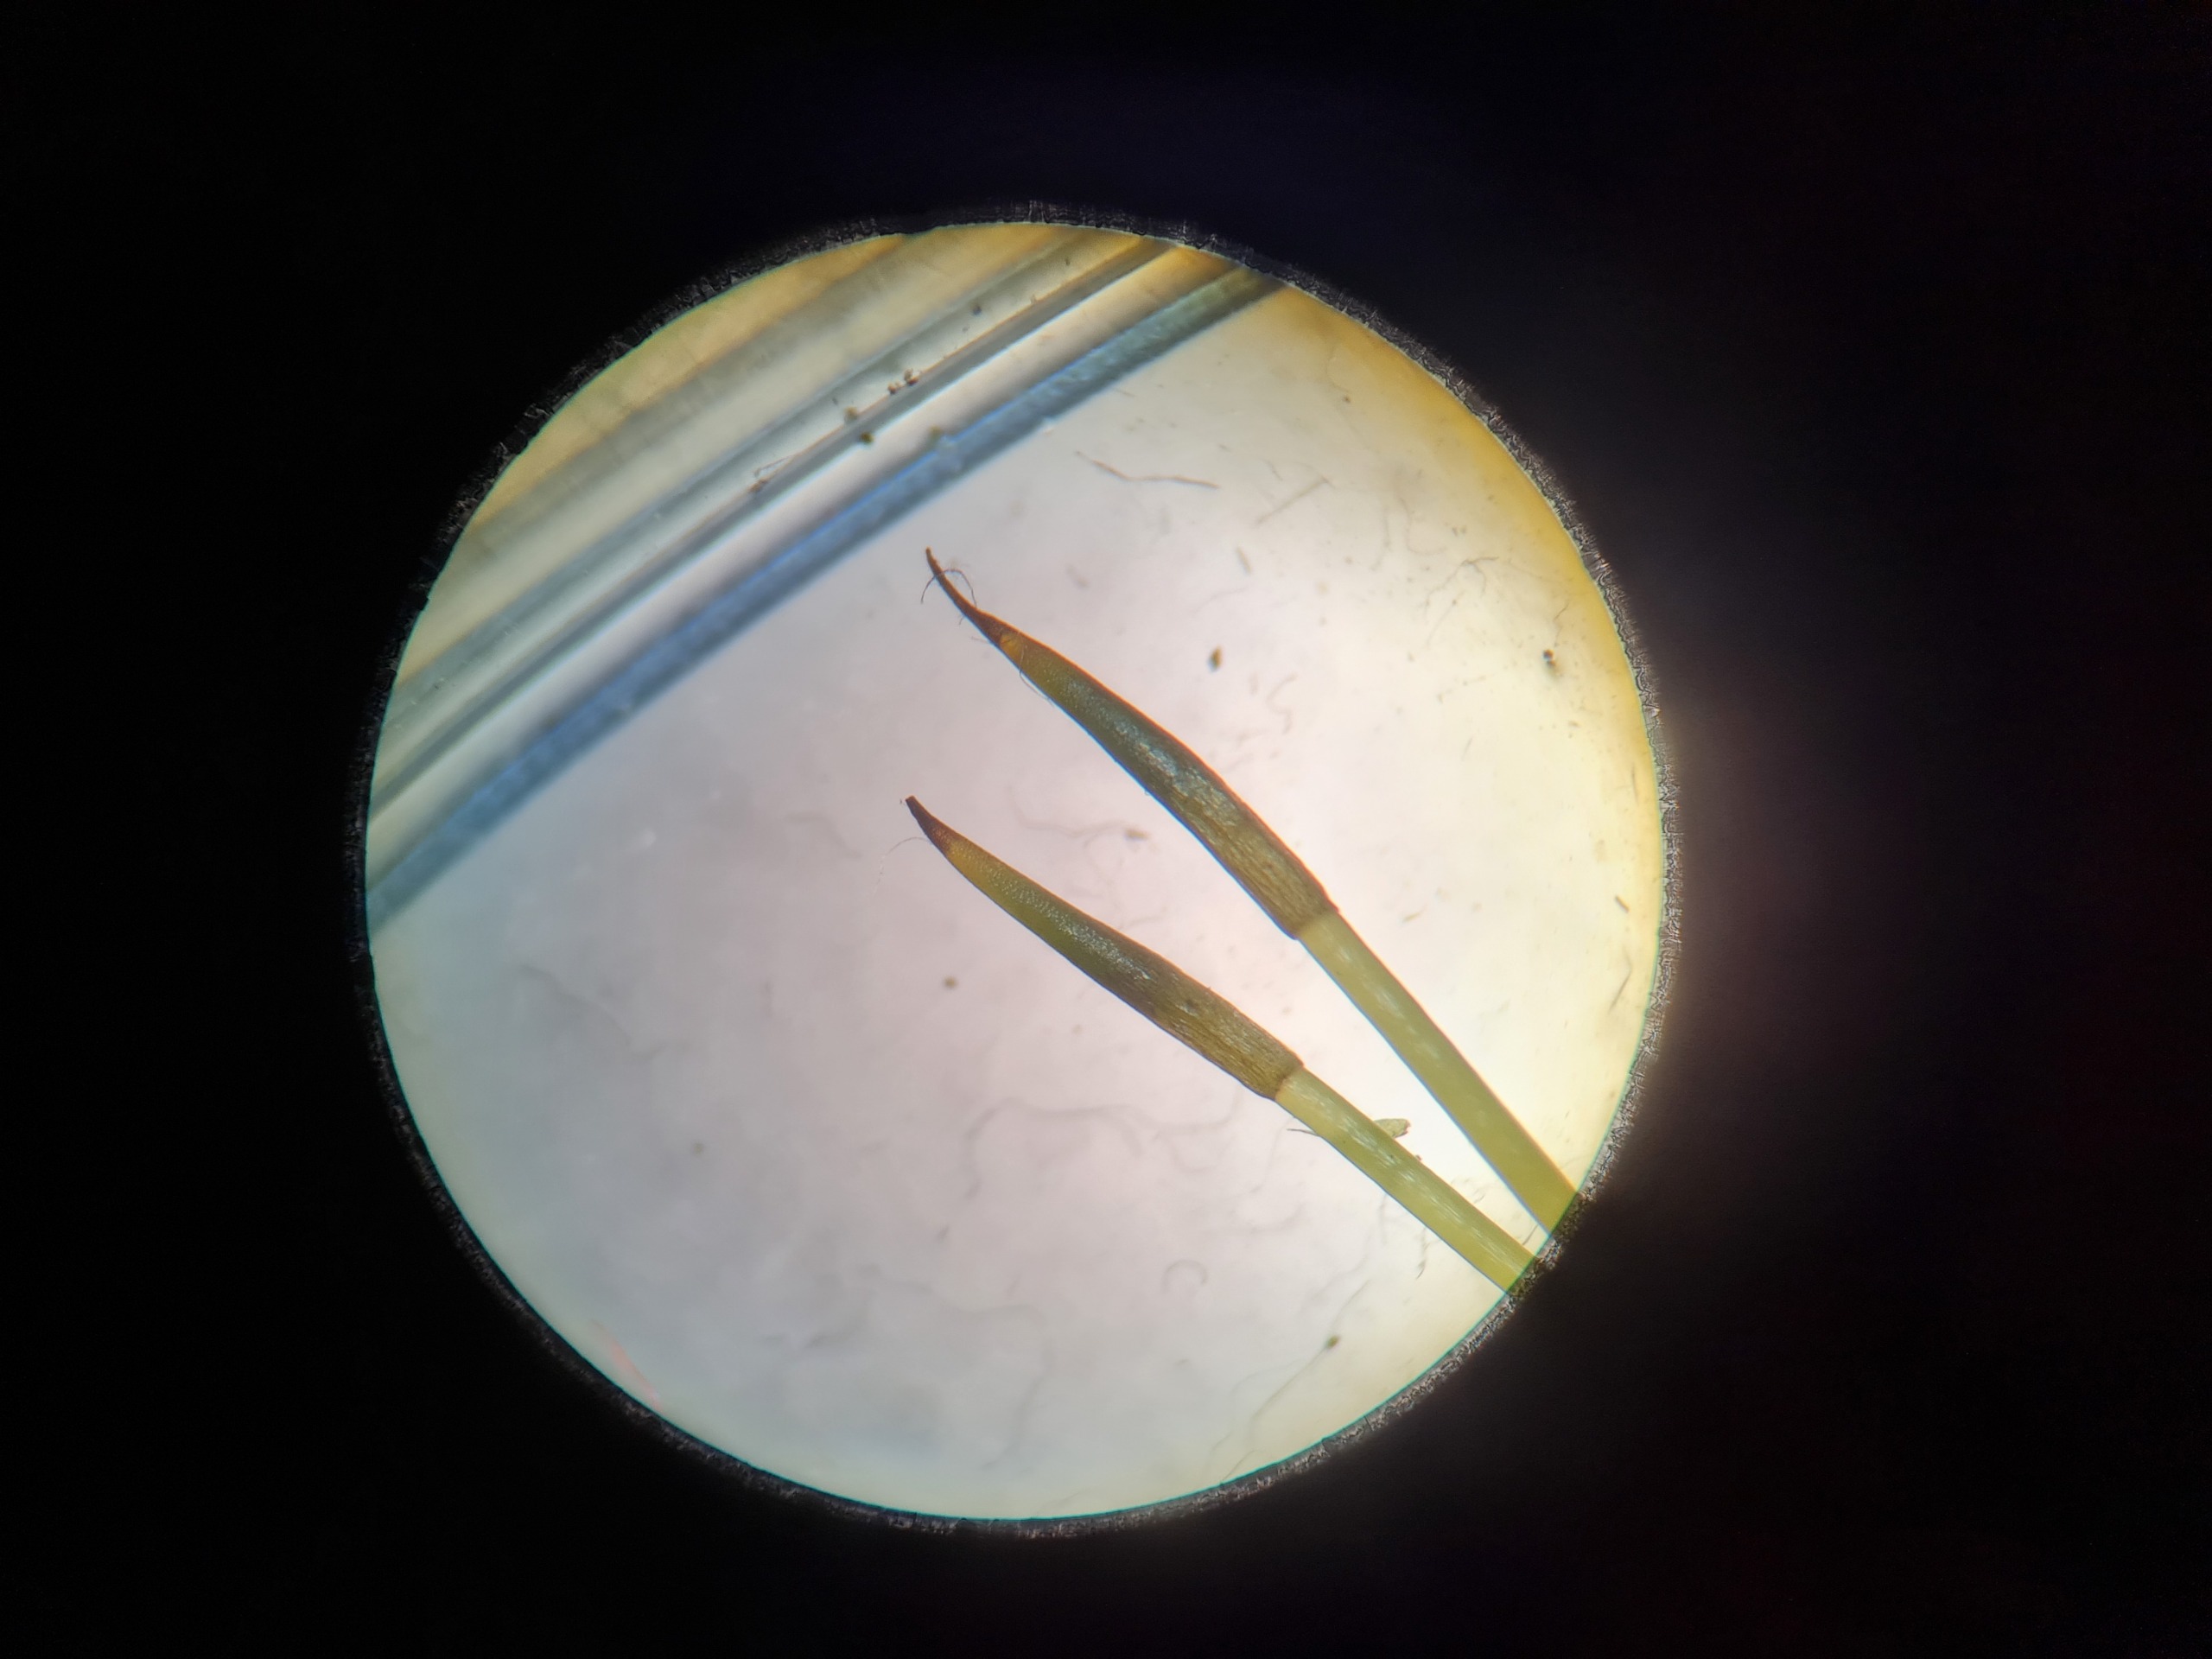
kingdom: Plantae
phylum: Bryophyta
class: Bryopsida
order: Bryales
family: Mniaceae
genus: Plagiomnium
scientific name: Plagiomnium
